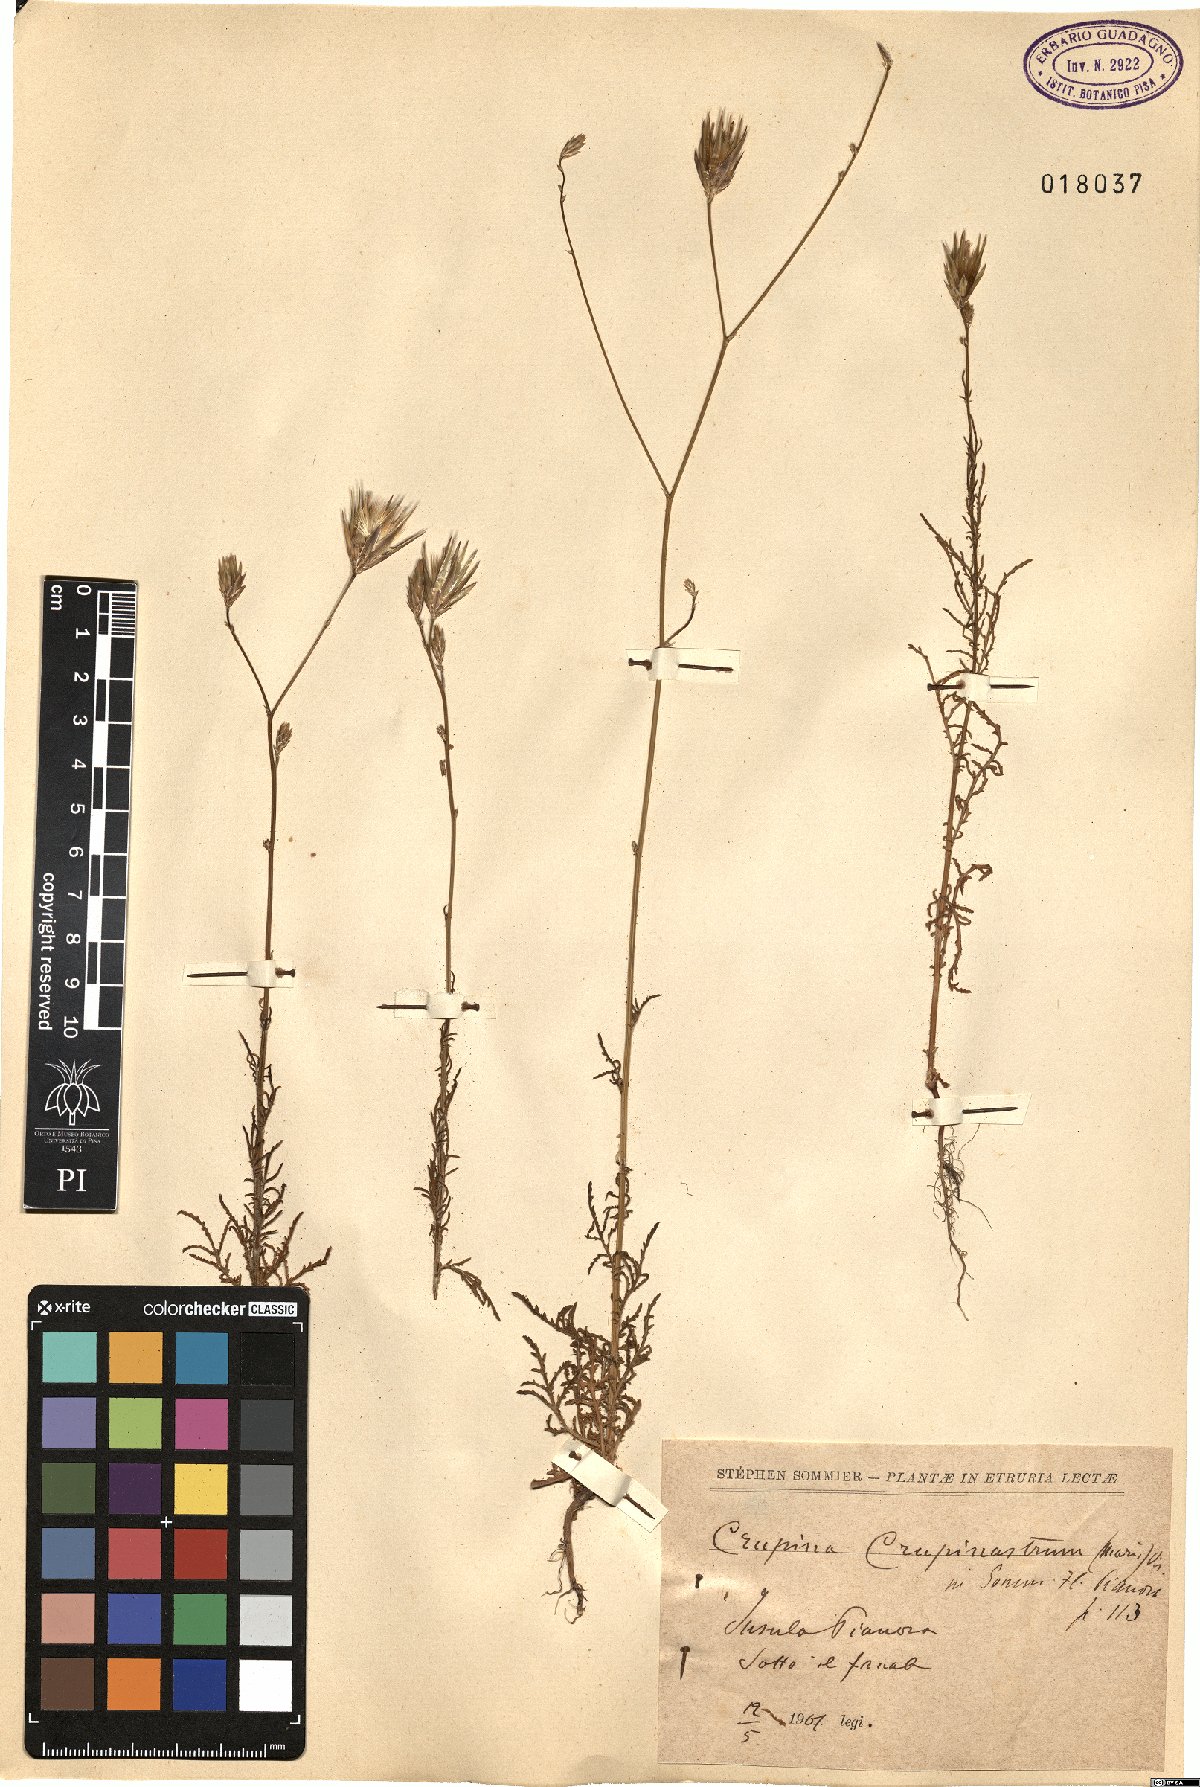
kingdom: Plantae
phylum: Tracheophyta
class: Magnoliopsida
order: Asterales
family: Asteraceae
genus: Crupina
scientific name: Crupina crupinastrum
